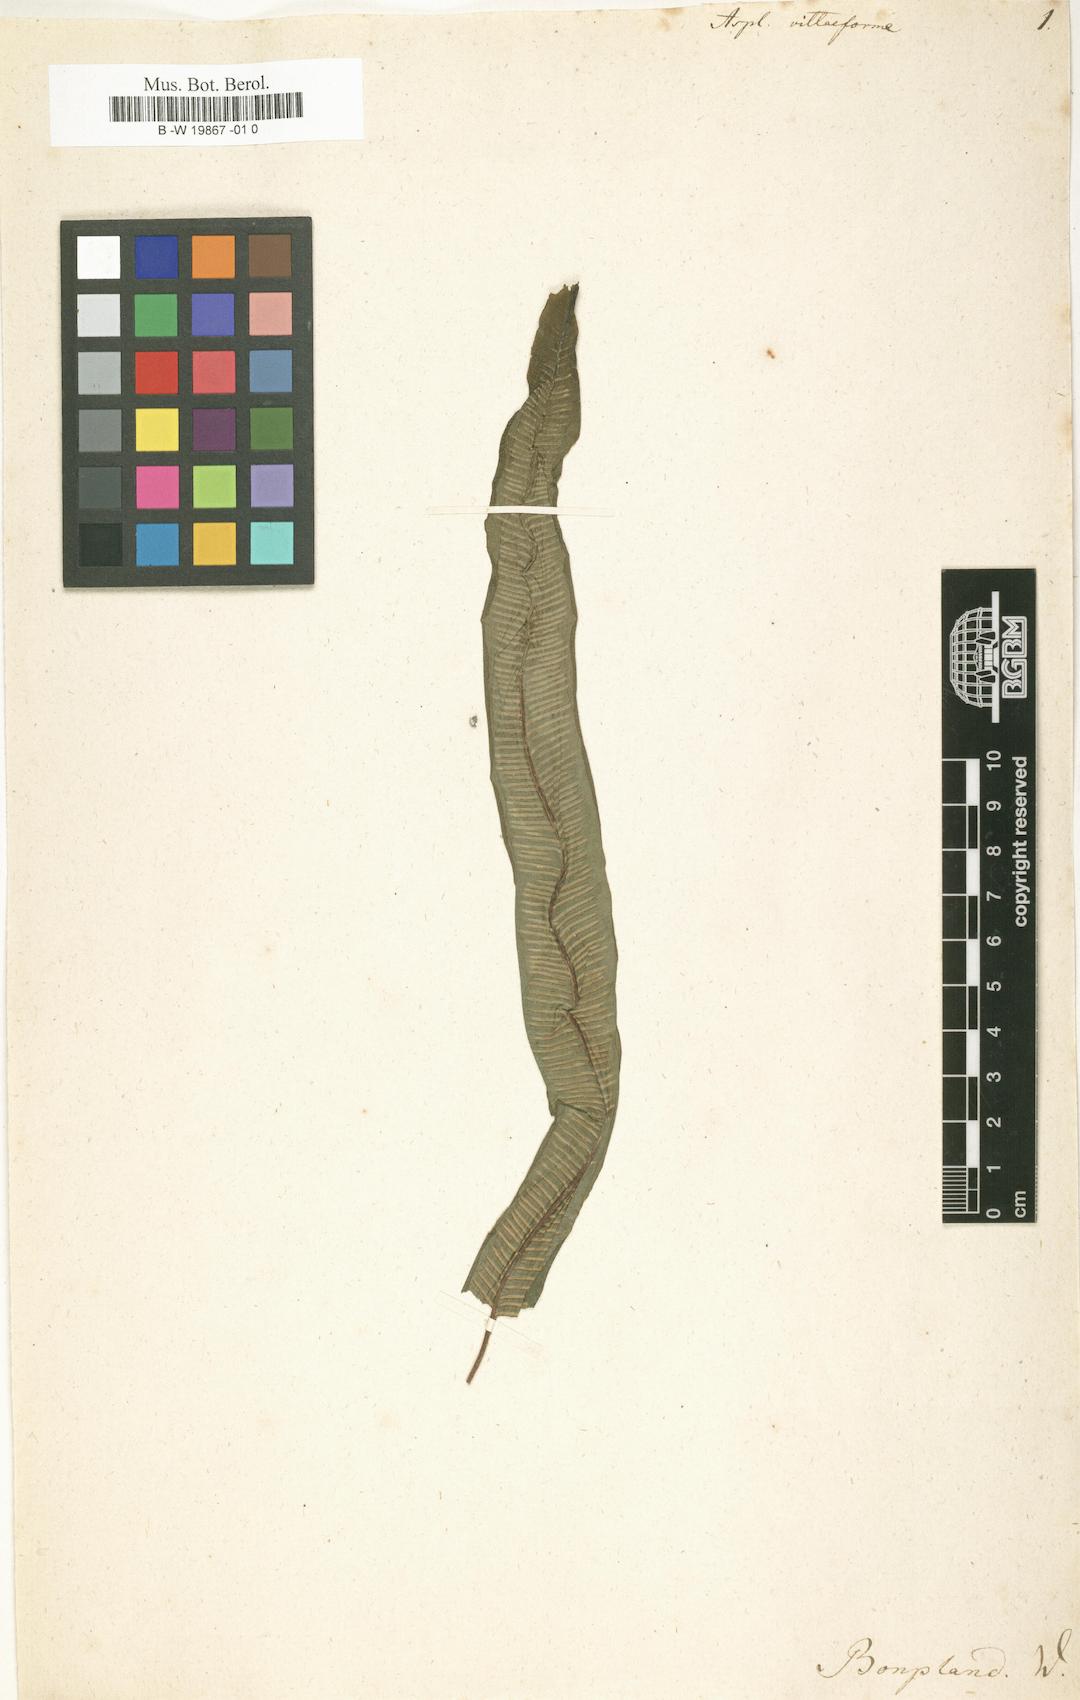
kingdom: Plantae
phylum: Tracheophyta
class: Polypodiopsida
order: Polypodiales
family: Aspleniaceae
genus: Asplenium
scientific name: Asplenium vittaeforme
